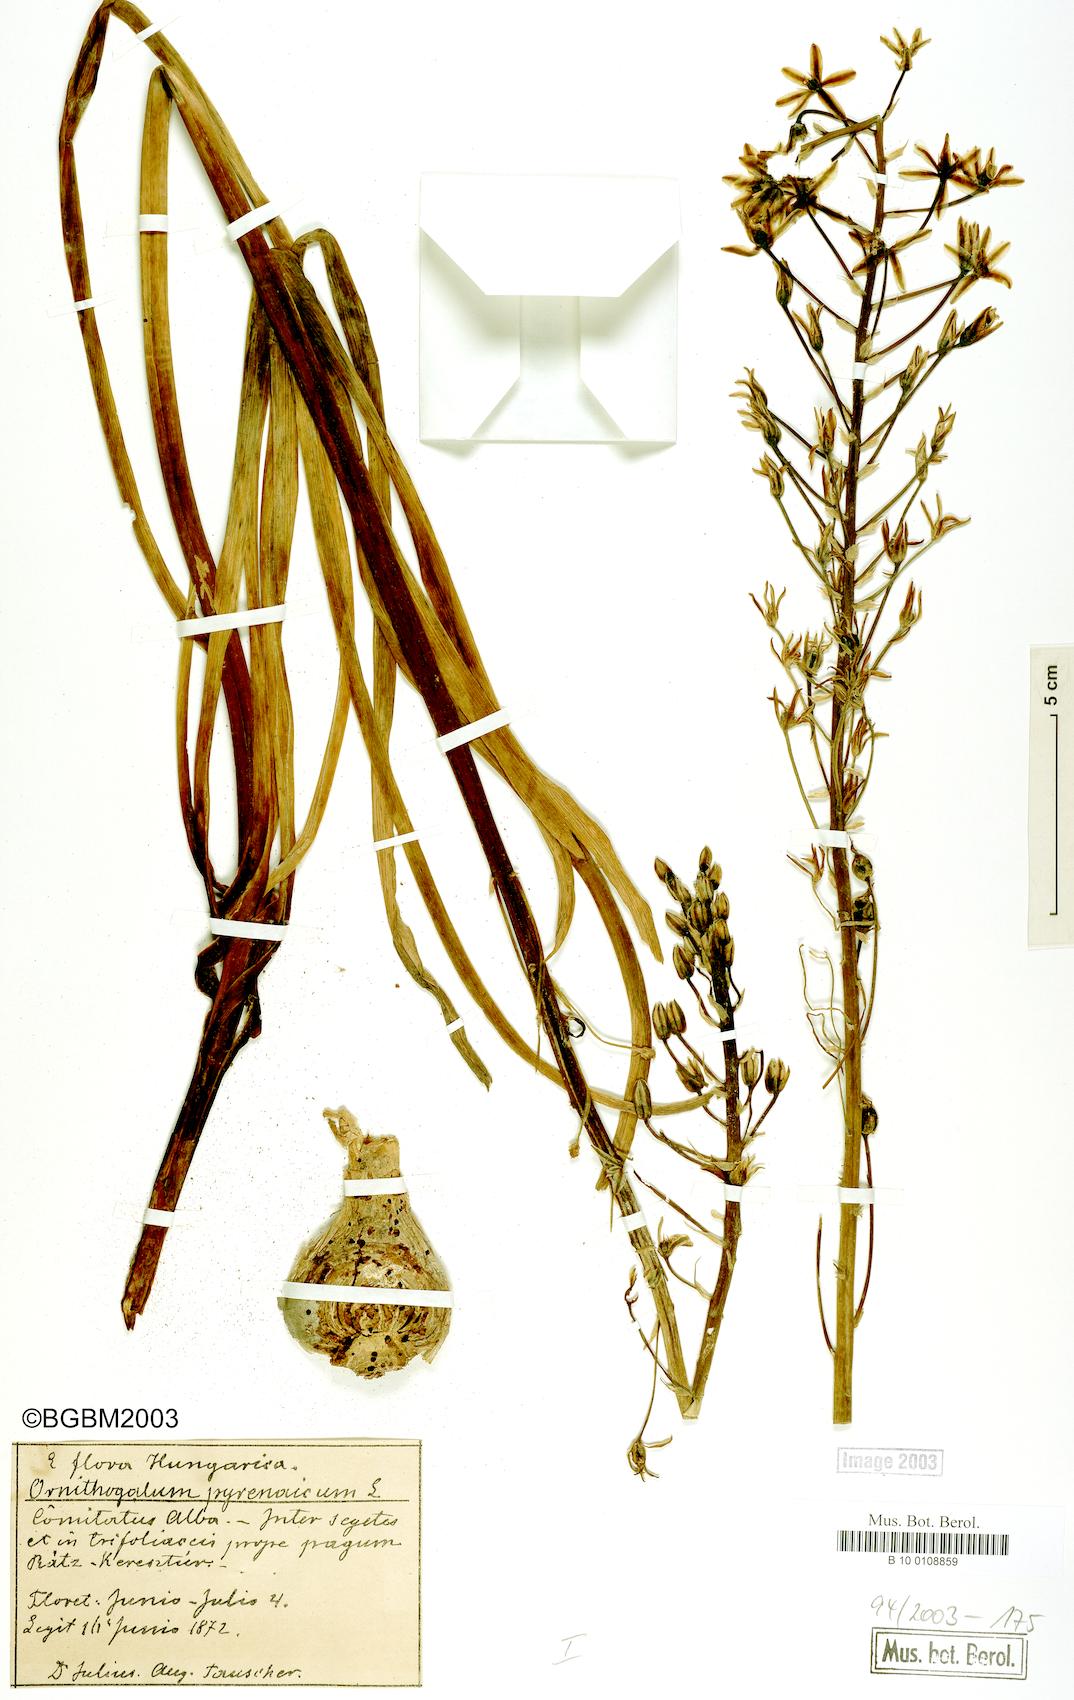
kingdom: Plantae
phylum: Tracheophyta
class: Liliopsida
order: Asparagales
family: Asparagaceae
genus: Ornithogalum
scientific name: Ornithogalum pyrenaicum
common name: Spiked star-of-bethlehem
